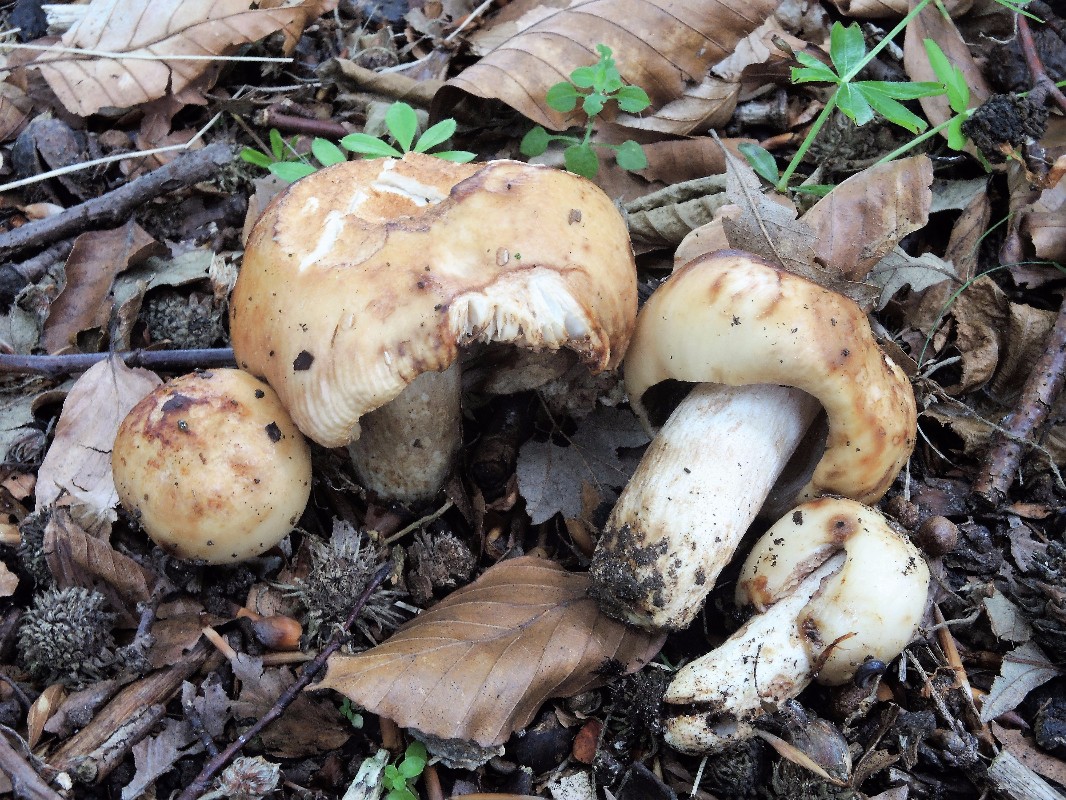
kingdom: Fungi
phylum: Basidiomycota
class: Agaricomycetes
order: Russulales
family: Russulaceae
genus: Russula
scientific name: Russula grata
